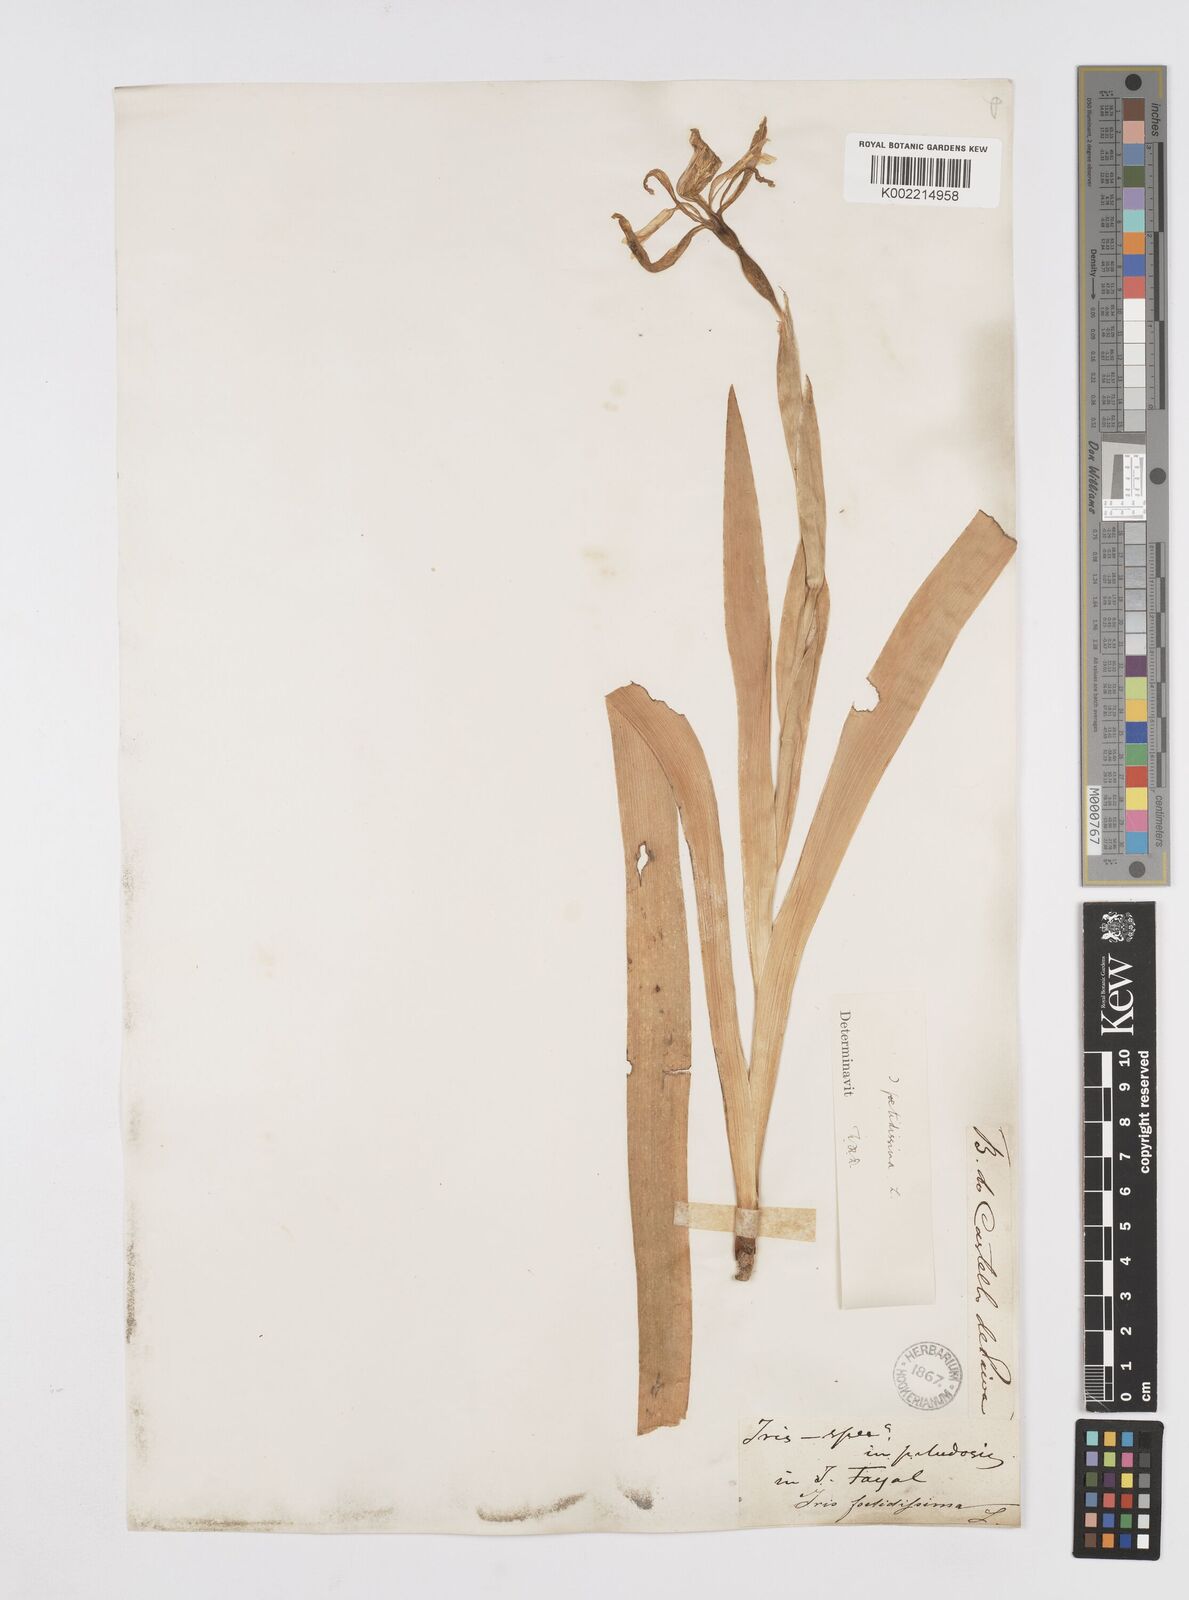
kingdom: Plantae
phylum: Tracheophyta
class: Liliopsida
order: Asparagales
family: Iridaceae
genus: Iris
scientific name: Iris foetidissima
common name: Stinking iris
